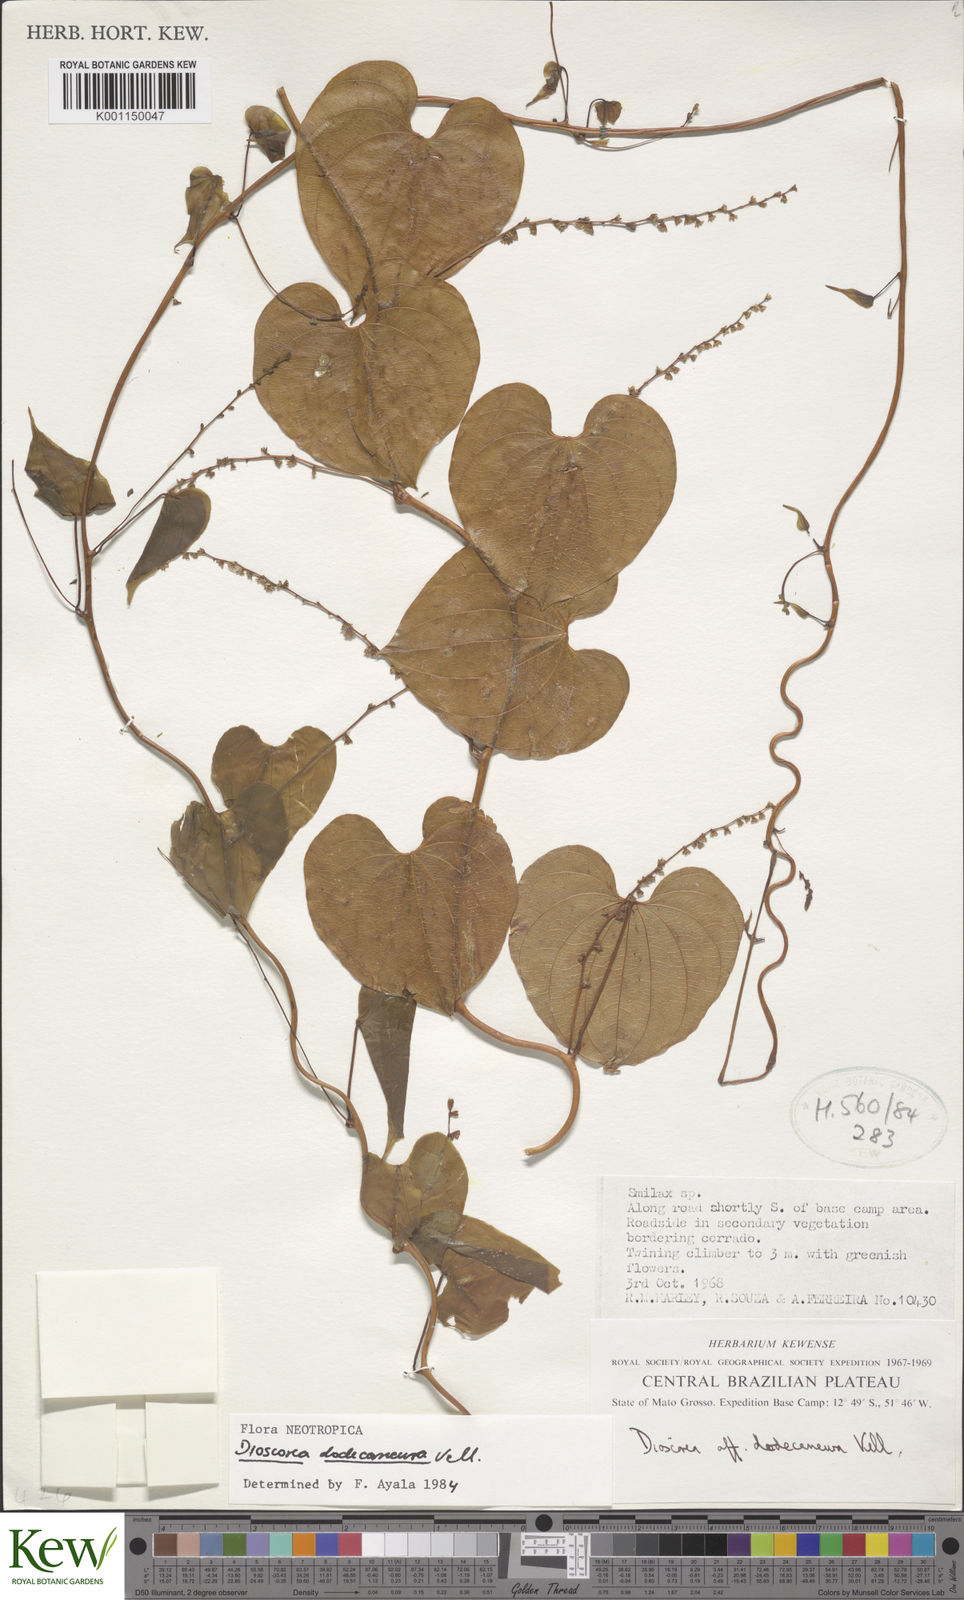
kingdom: Plantae
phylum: Tracheophyta
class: Liliopsida
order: Dioscoreales
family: Dioscoreaceae
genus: Dioscorea
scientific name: Dioscorea chondrocarpa
